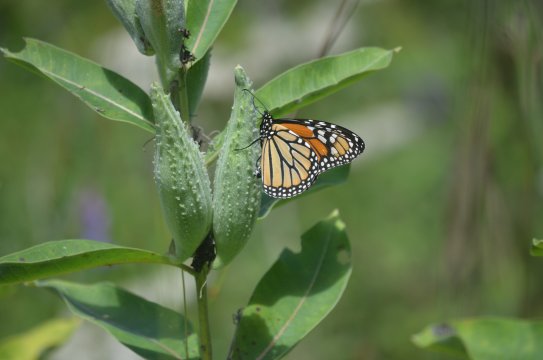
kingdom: Animalia
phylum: Arthropoda
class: Insecta
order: Lepidoptera
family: Nymphalidae
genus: Danaus
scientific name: Danaus plexippus
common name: Monarch
